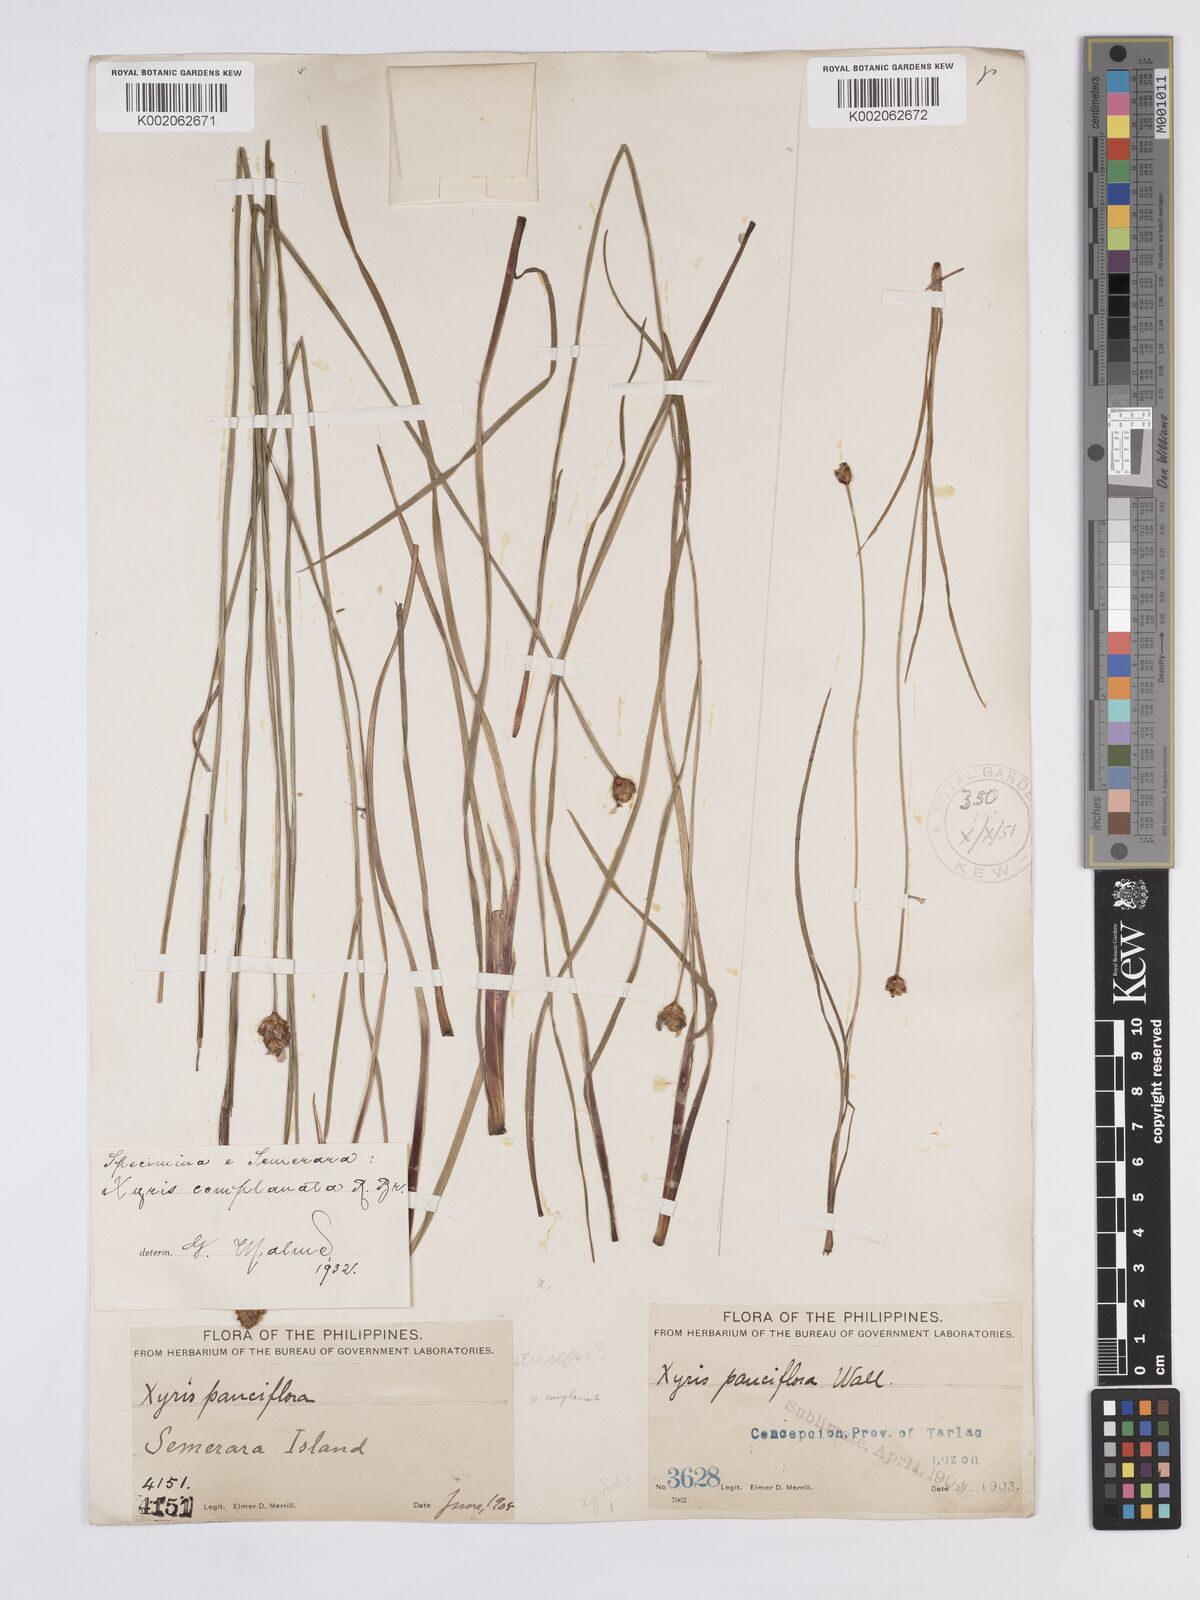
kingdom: Plantae
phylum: Tracheophyta
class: Liliopsida
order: Poales
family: Xyridaceae
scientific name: Xyridaceae
